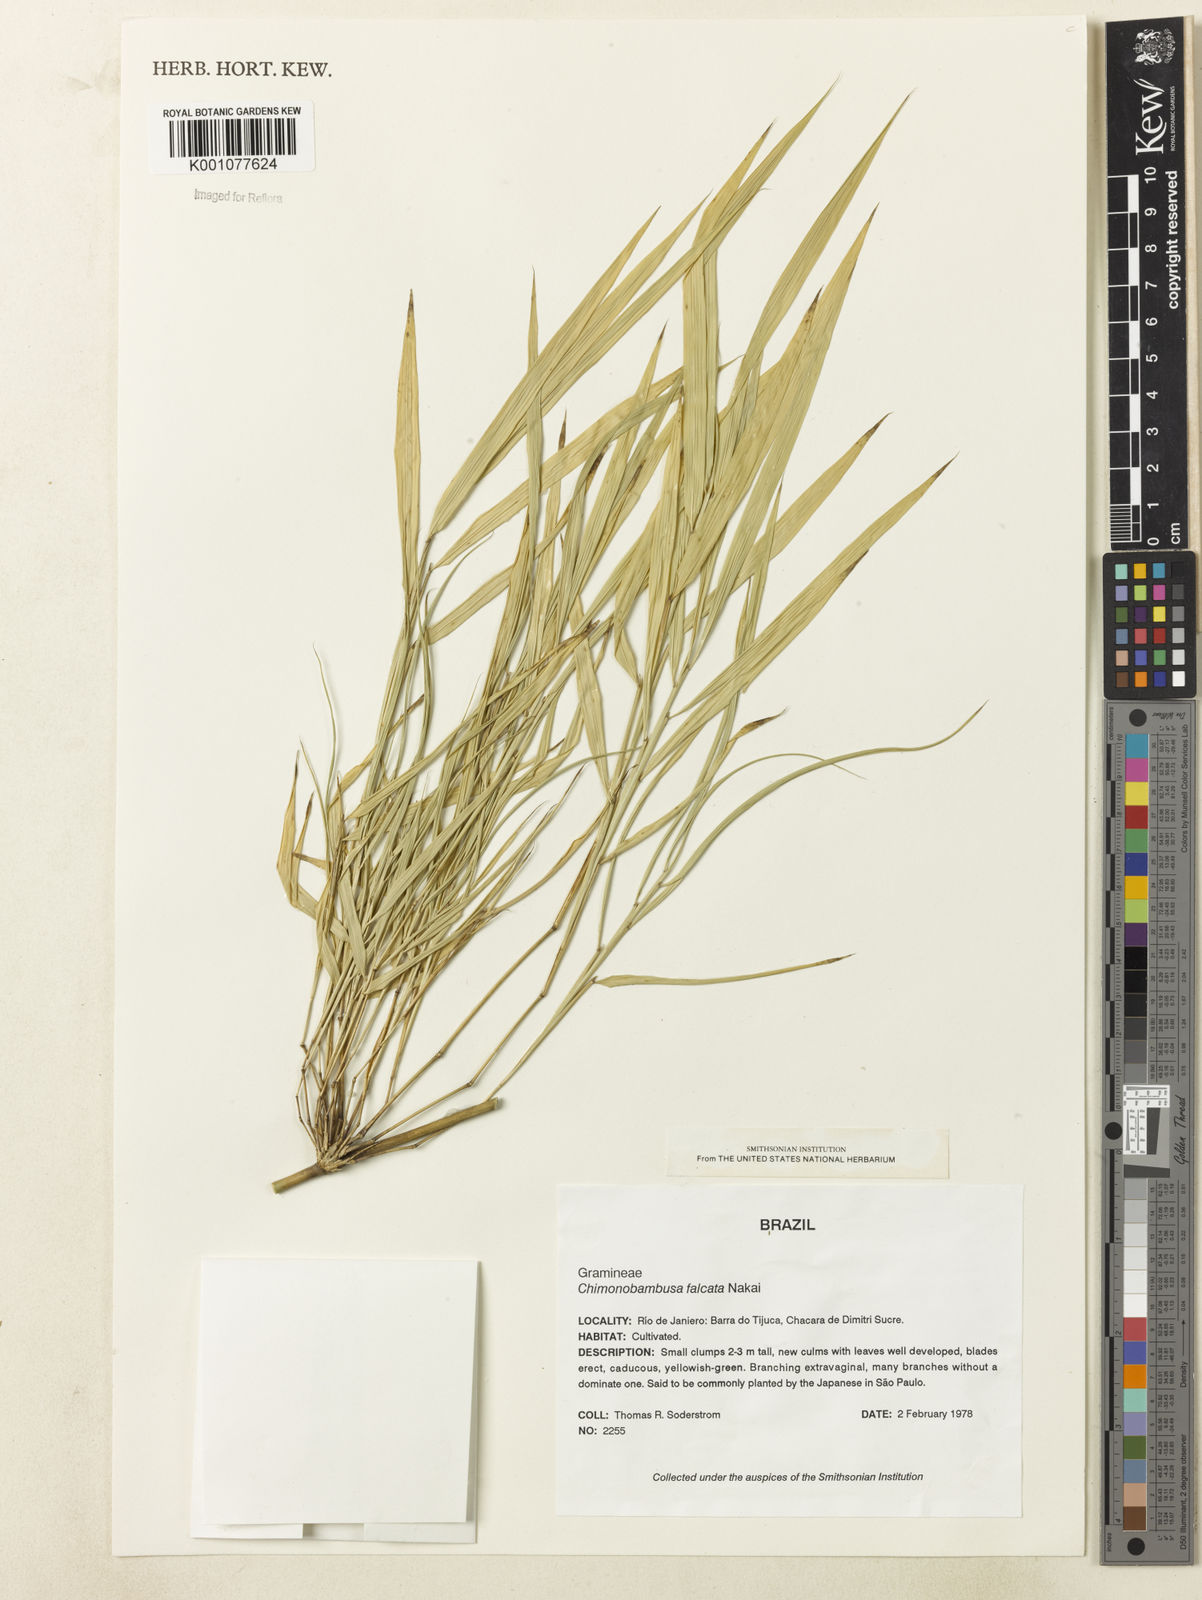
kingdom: Plantae
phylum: Tracheophyta
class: Liliopsida
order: Poales
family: Poaceae
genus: Drepanostachyum
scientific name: Drepanostachyum falcatum
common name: Himalayan bamboo
